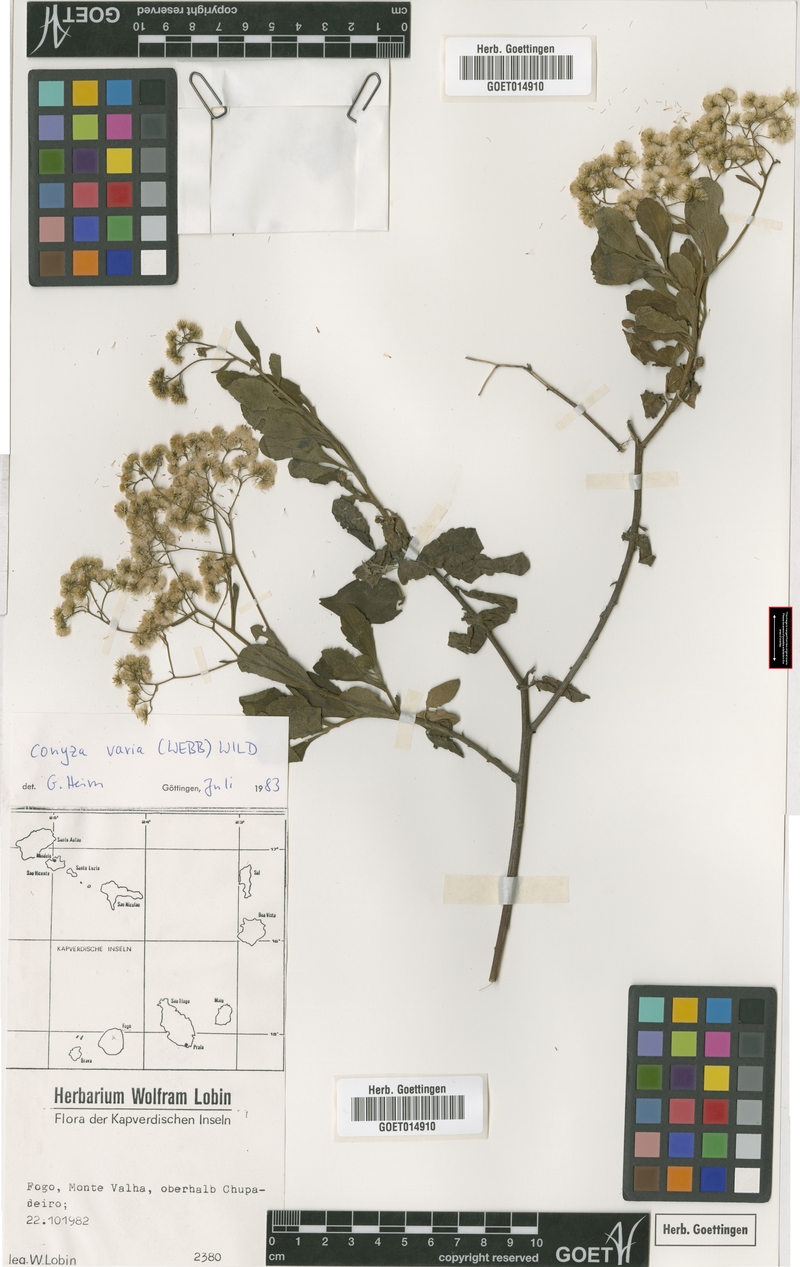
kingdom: Plantae
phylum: Tracheophyta
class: Magnoliopsida
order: Asterales
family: Asteraceae
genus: Nidorella
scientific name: Nidorella varia
